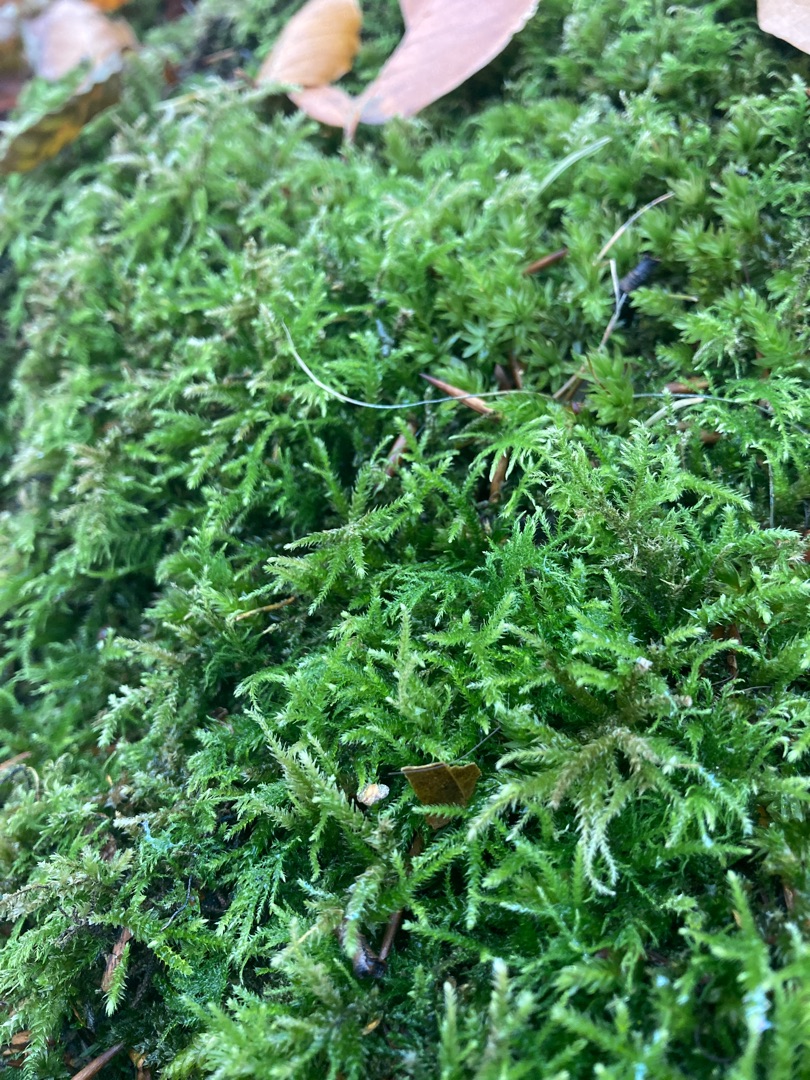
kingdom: Plantae
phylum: Bryophyta
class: Bryopsida
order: Hypnales
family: Brachytheciaceae
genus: Eurhynchium
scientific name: Eurhynchium striatum
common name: Stribet næbmos
